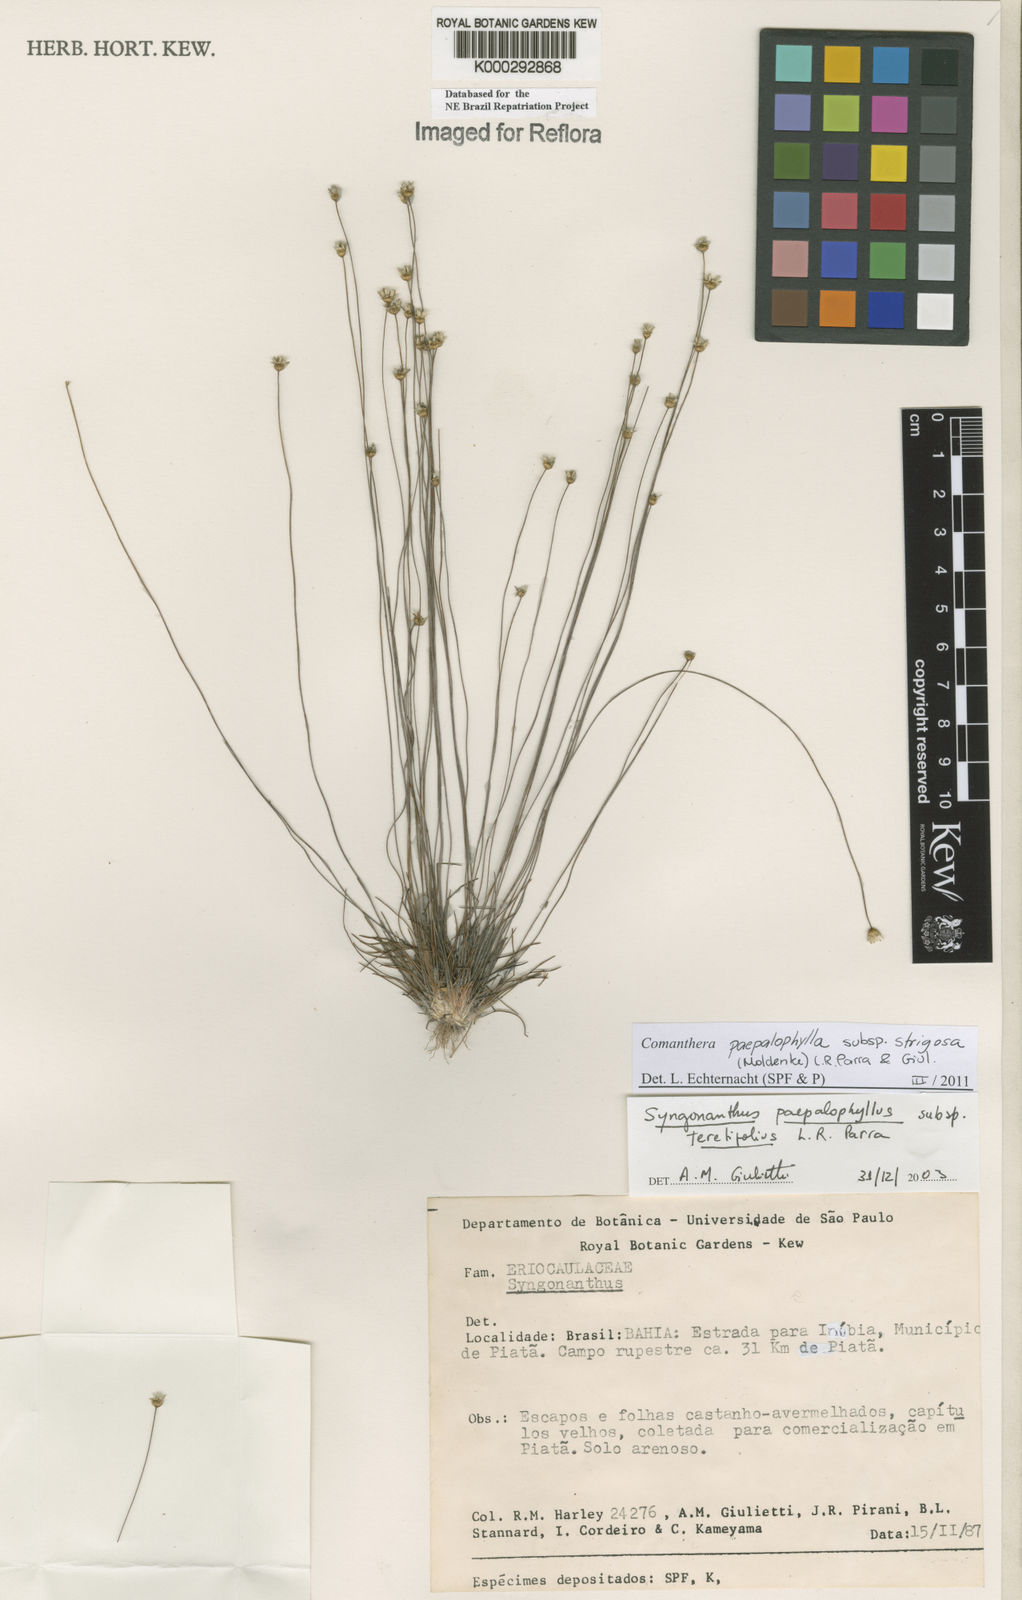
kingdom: Plantae
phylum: Tracheophyta
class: Liliopsida
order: Poales
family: Eriocaulaceae
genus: Comanthera
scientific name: Comanthera paepalophylla
